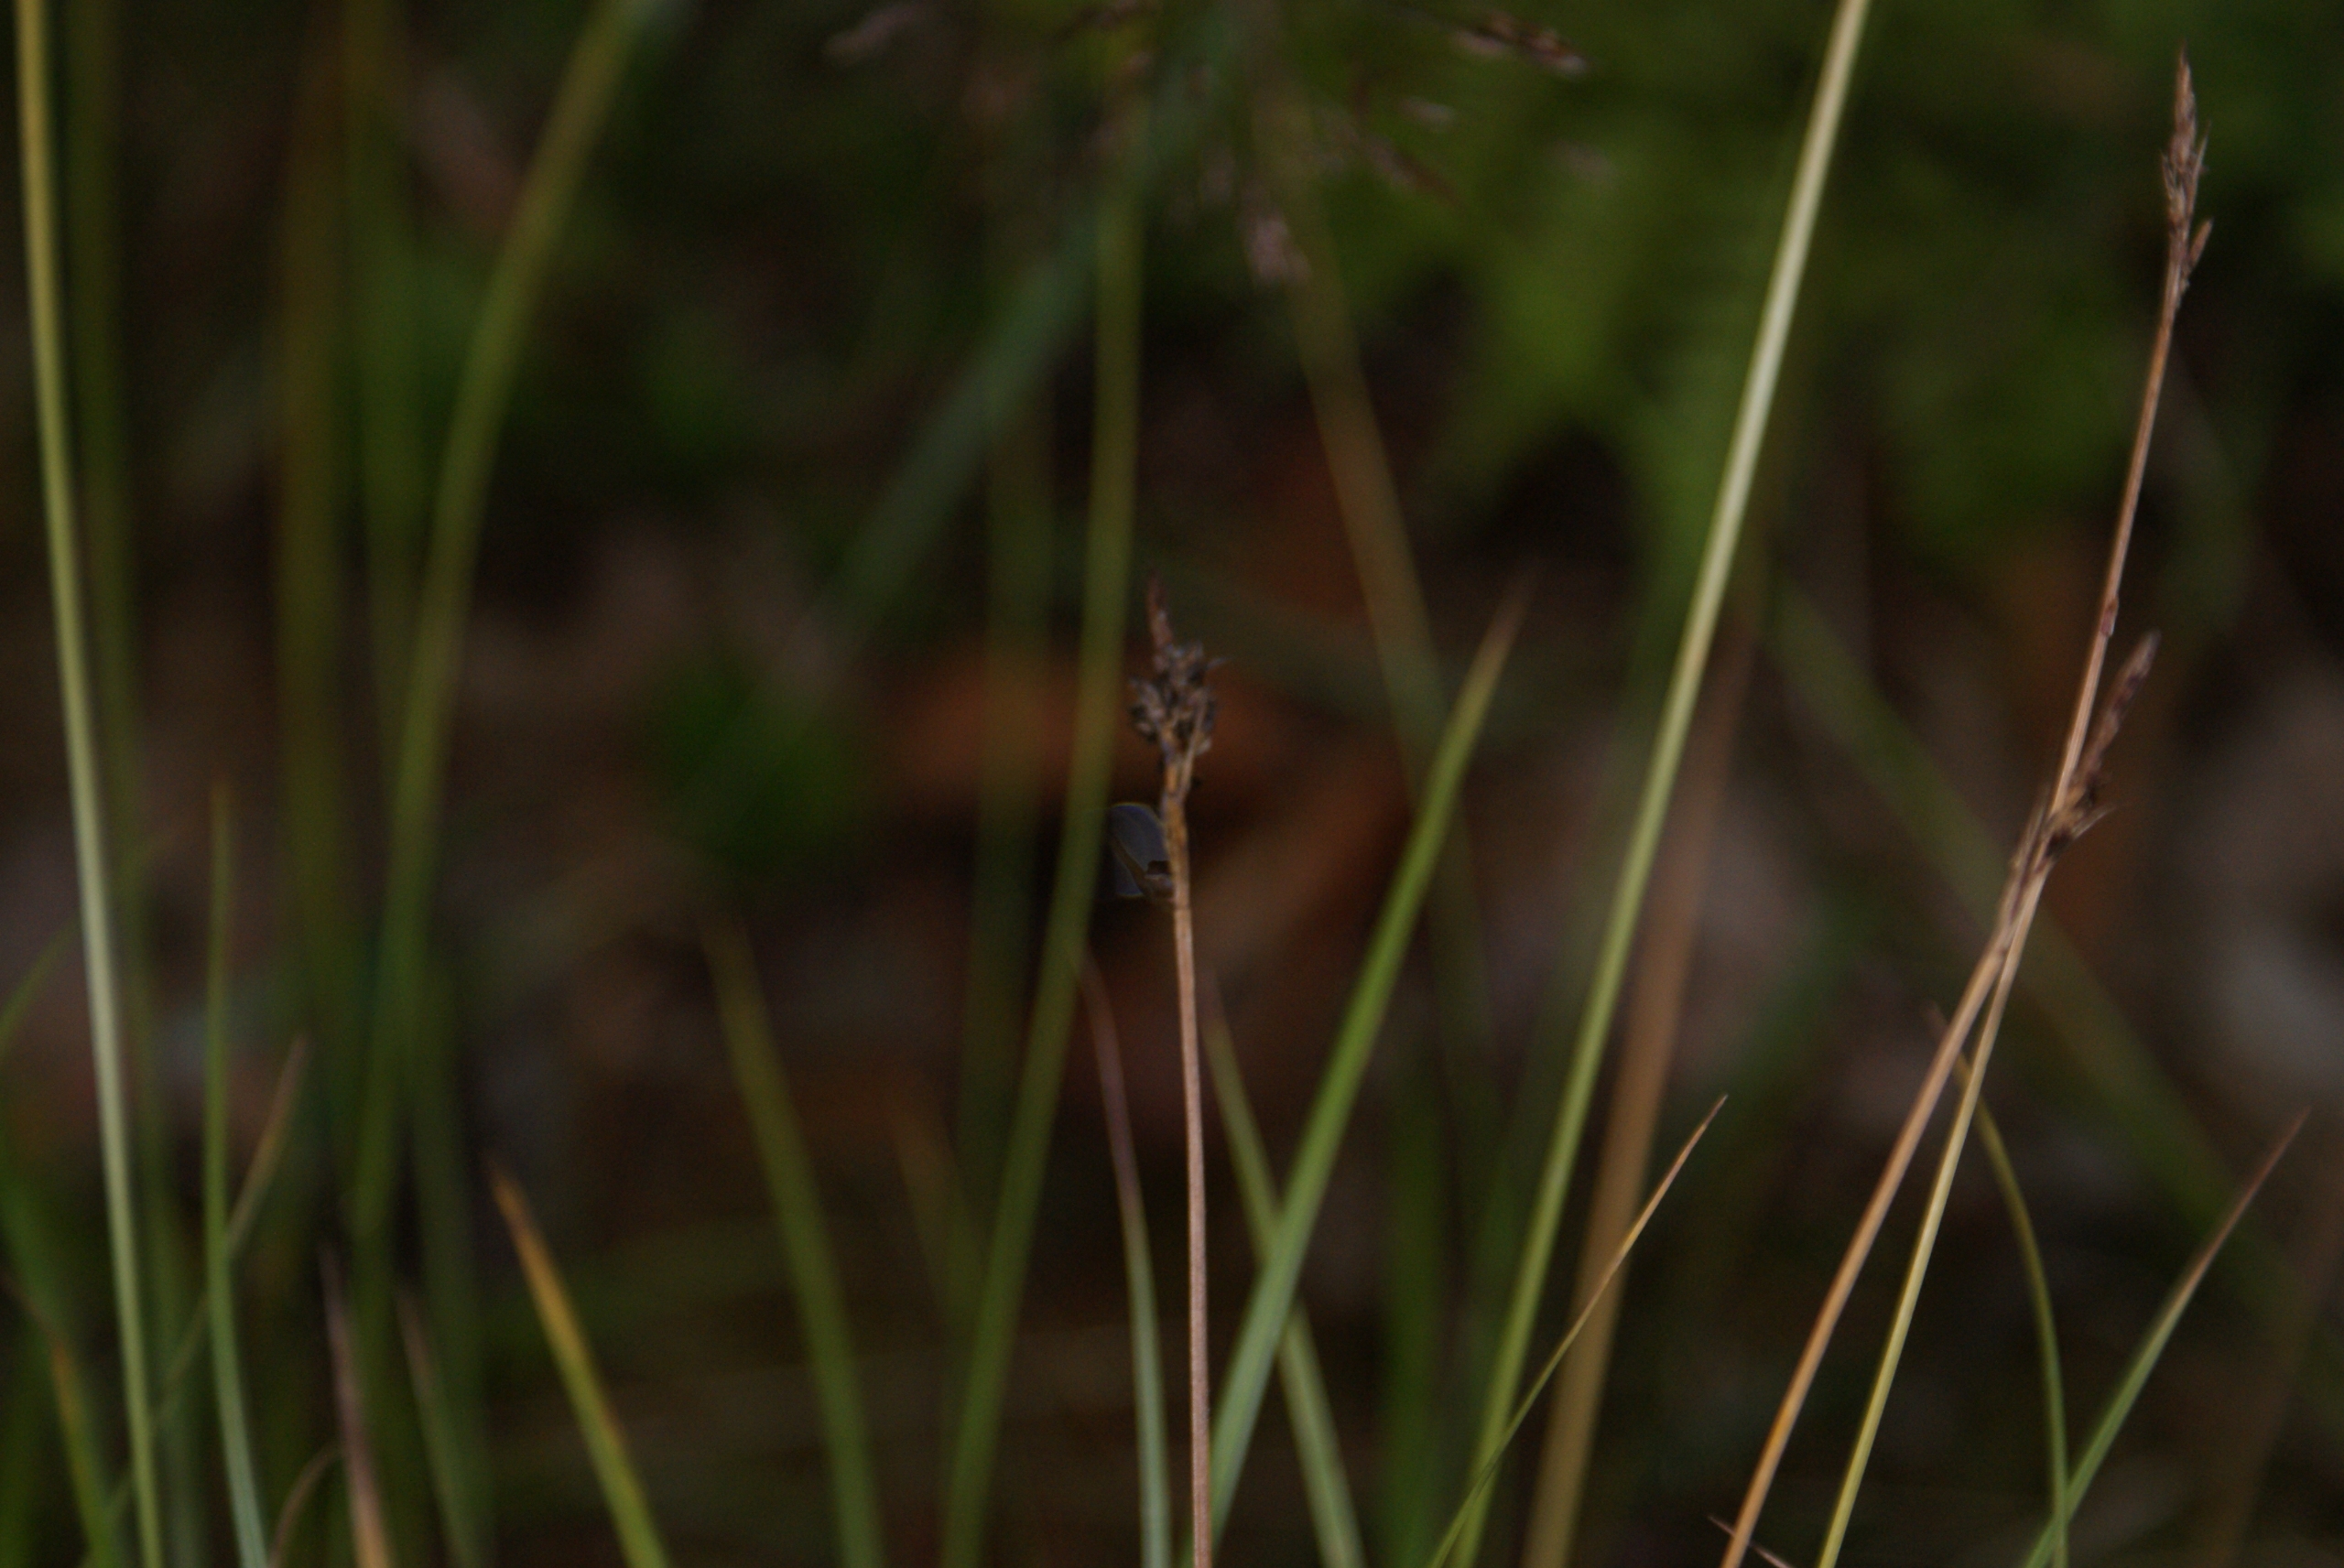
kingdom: Plantae
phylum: Tracheophyta
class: Liliopsida
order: Poales
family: Cyperaceae
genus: Carex
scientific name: Carex pilulifera
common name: Pille-star
